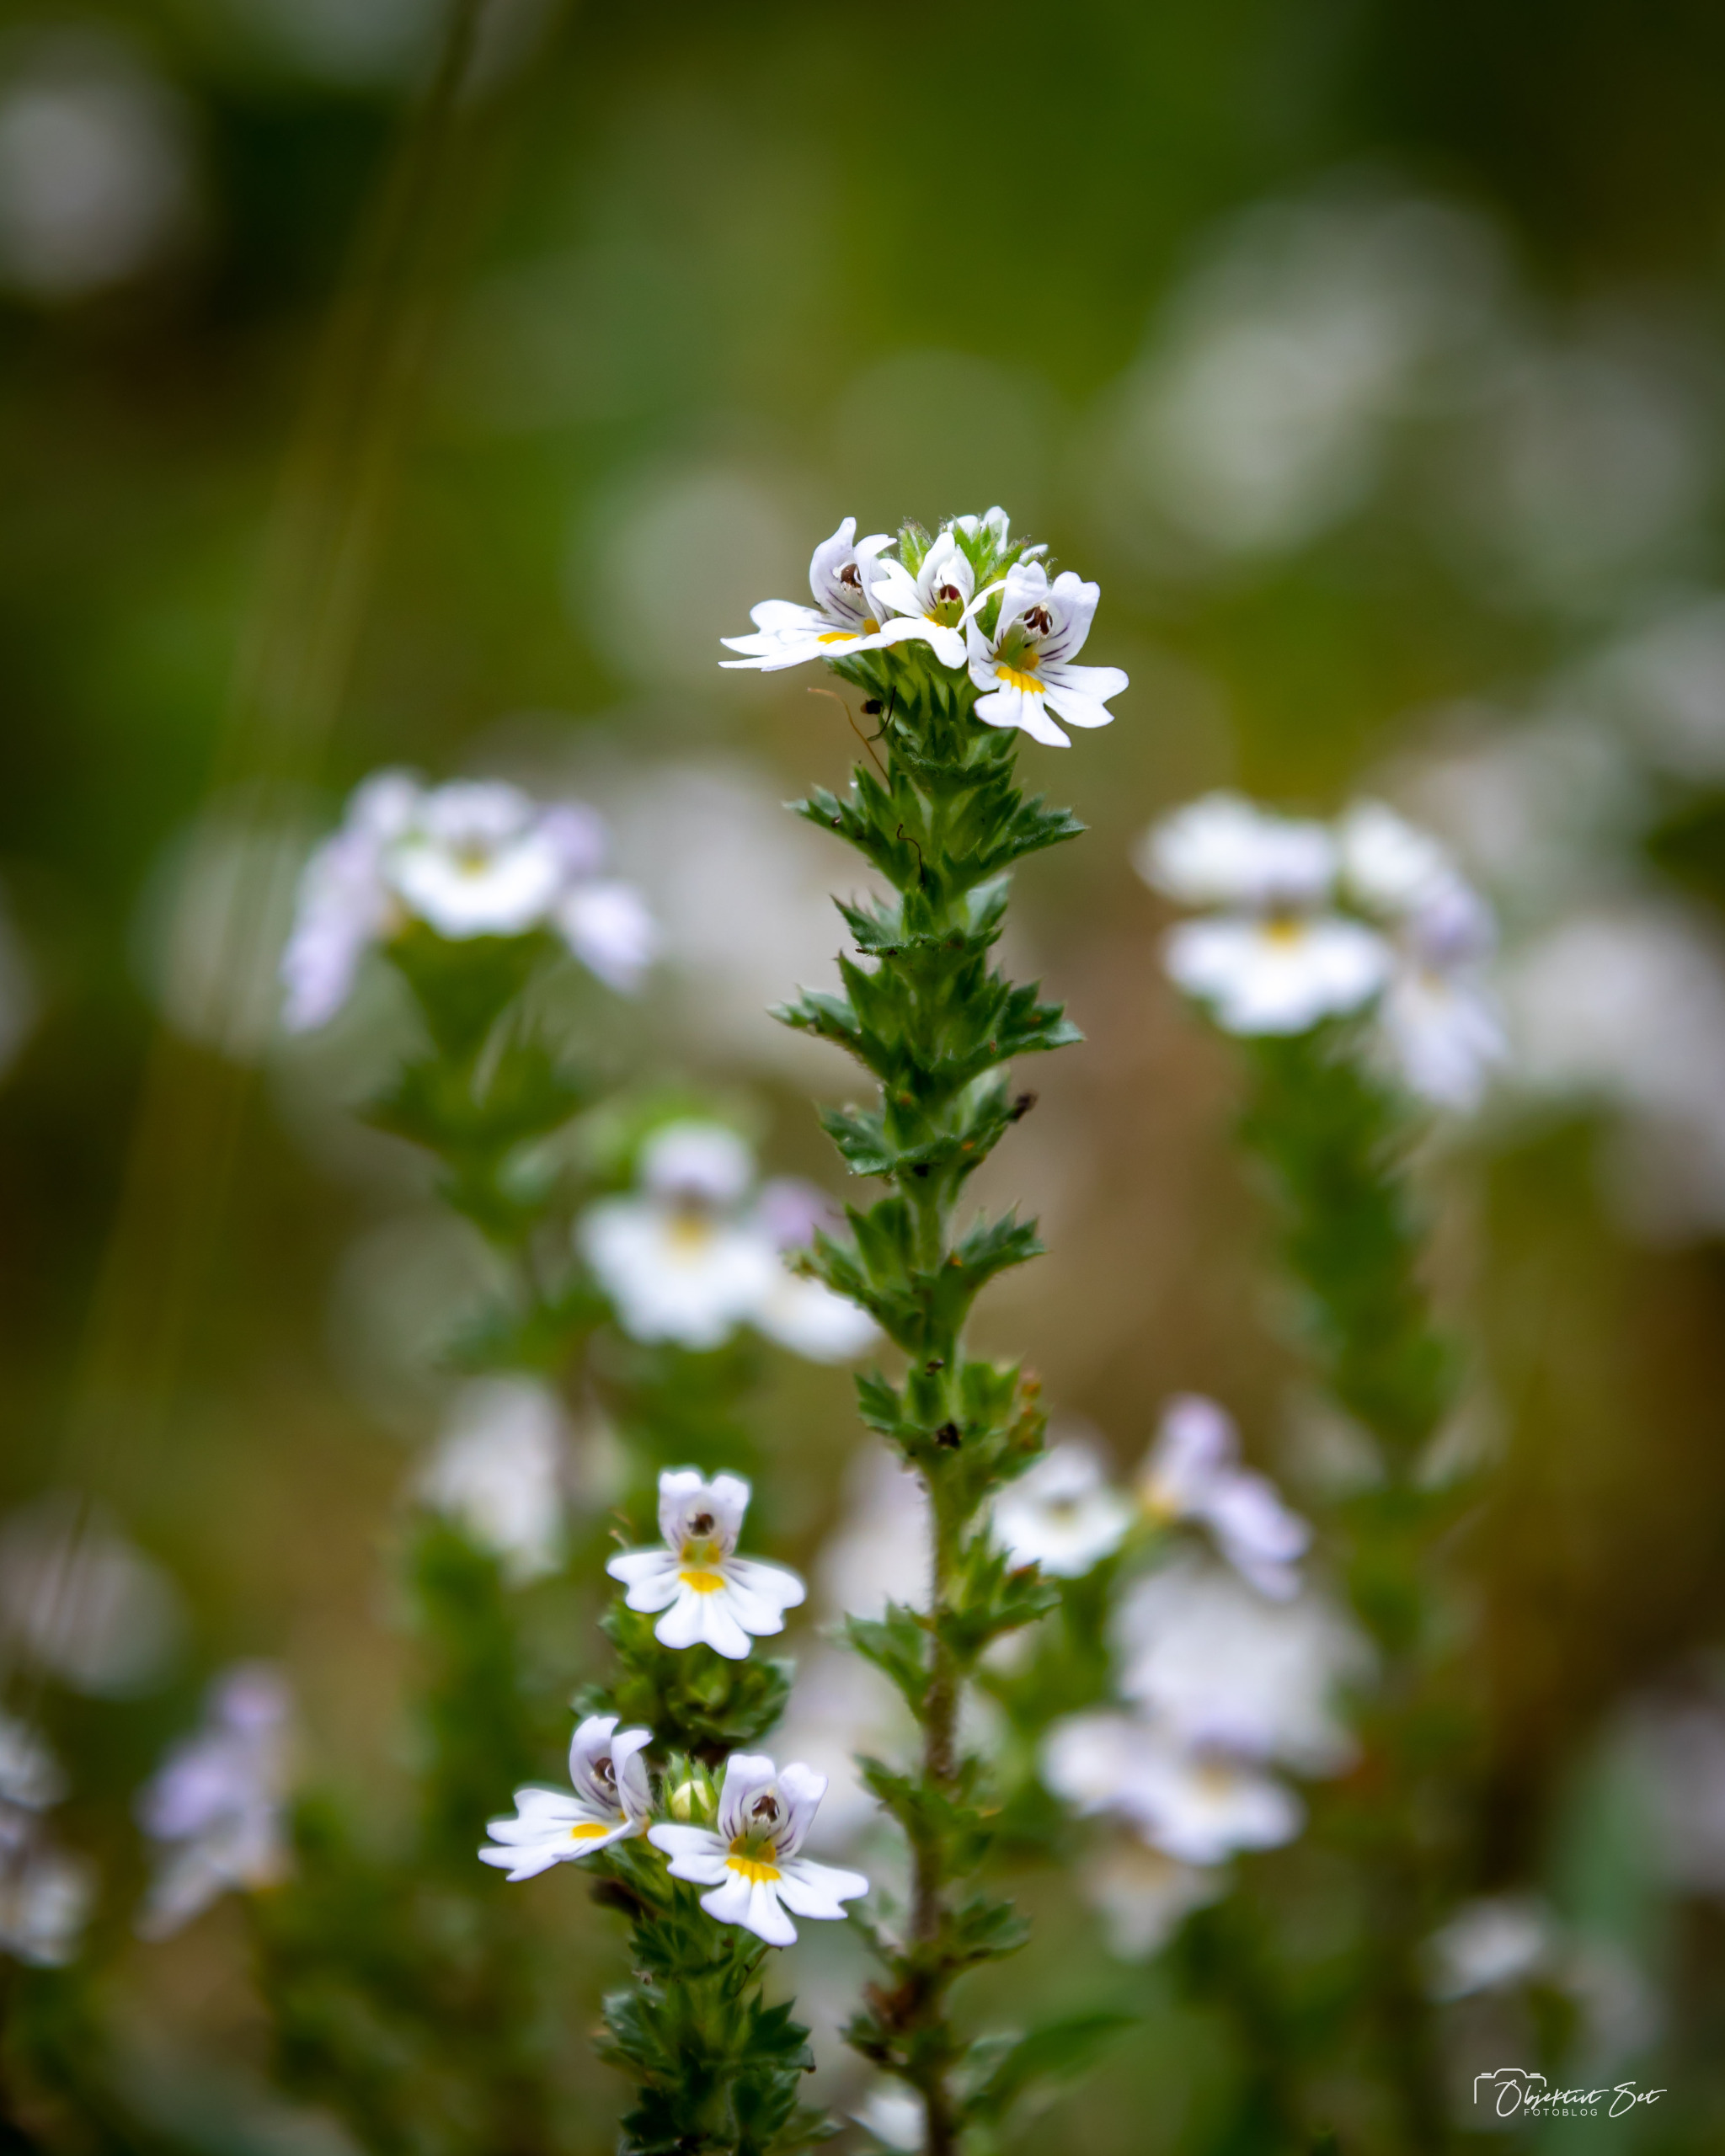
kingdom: Plantae
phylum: Tracheophyta
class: Magnoliopsida
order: Lamiales
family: Orobanchaceae
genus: Euphrasia
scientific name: Euphrasia
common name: Øjentrøstslægten
